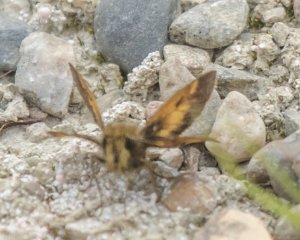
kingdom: Animalia
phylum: Arthropoda
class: Insecta
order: Lepidoptera
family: Hesperiidae
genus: Lon
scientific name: Lon hobomok
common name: Hobomok Skipper
